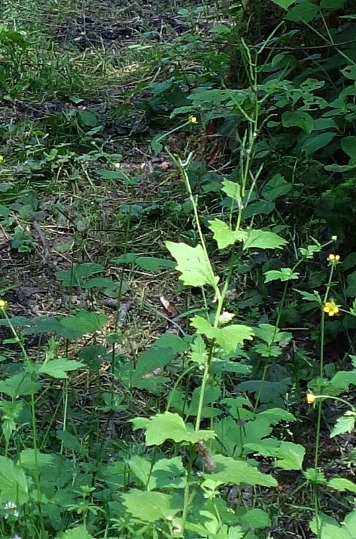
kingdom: Plantae
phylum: Tracheophyta
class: Magnoliopsida
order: Brassicales
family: Brassicaceae
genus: Alliaria
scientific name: Alliaria petiolata
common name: Løgkarse
